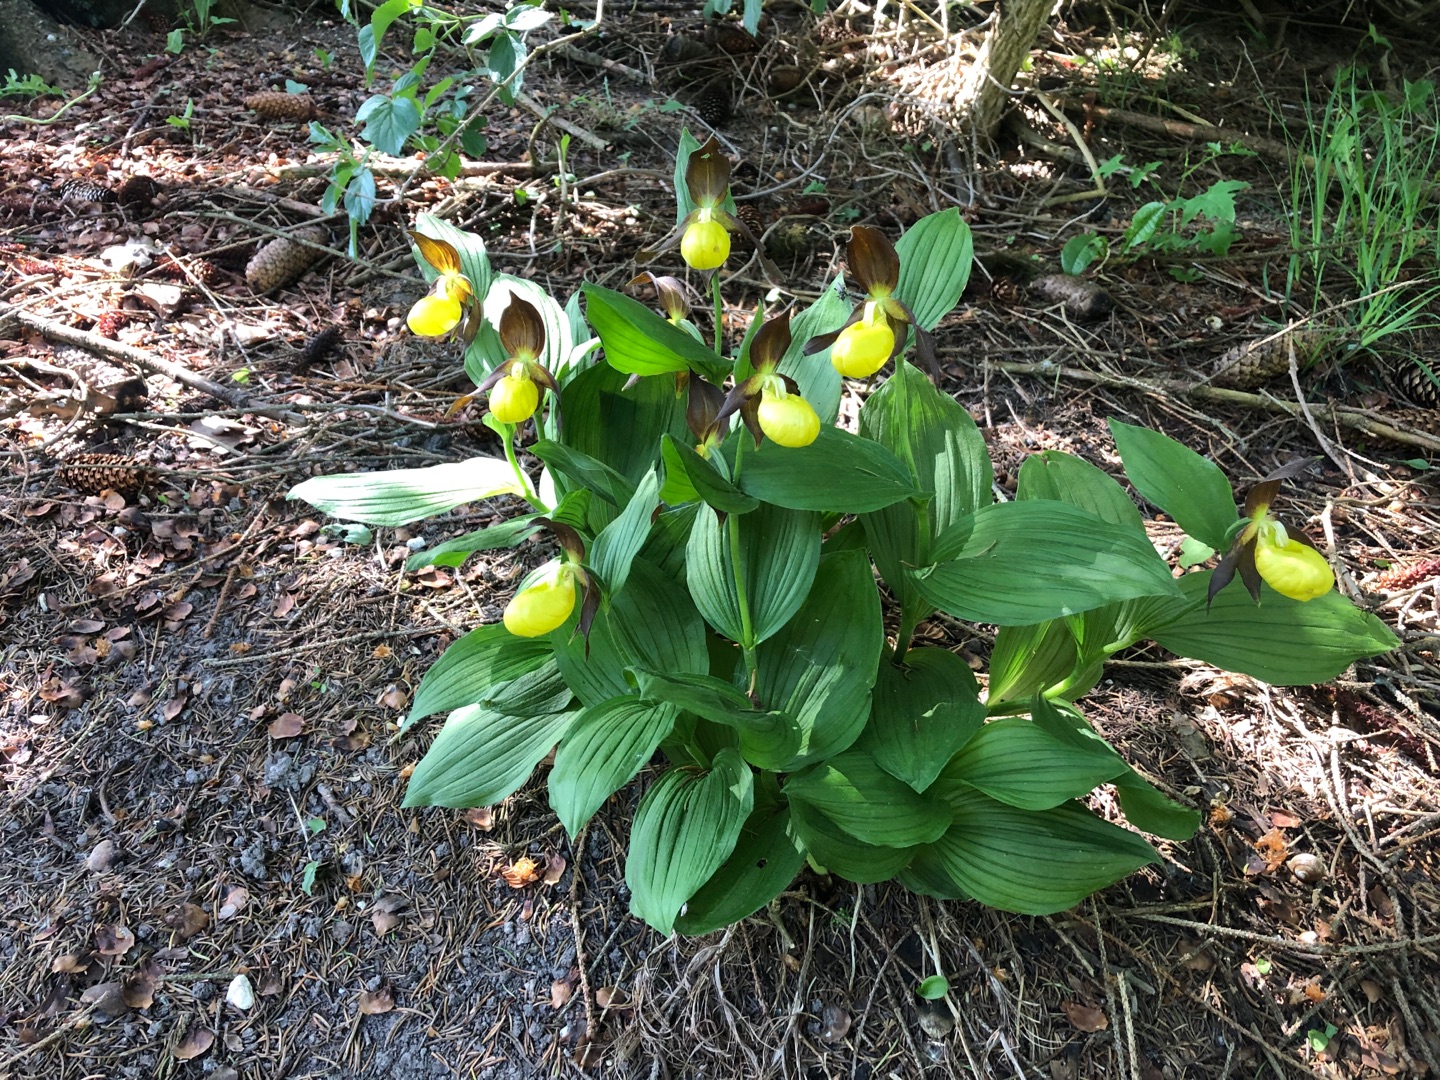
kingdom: Plantae
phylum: Tracheophyta
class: Liliopsida
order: Asparagales
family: Orchidaceae
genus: Cypripedium
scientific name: Cypripedium calceolus
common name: Fruesko
